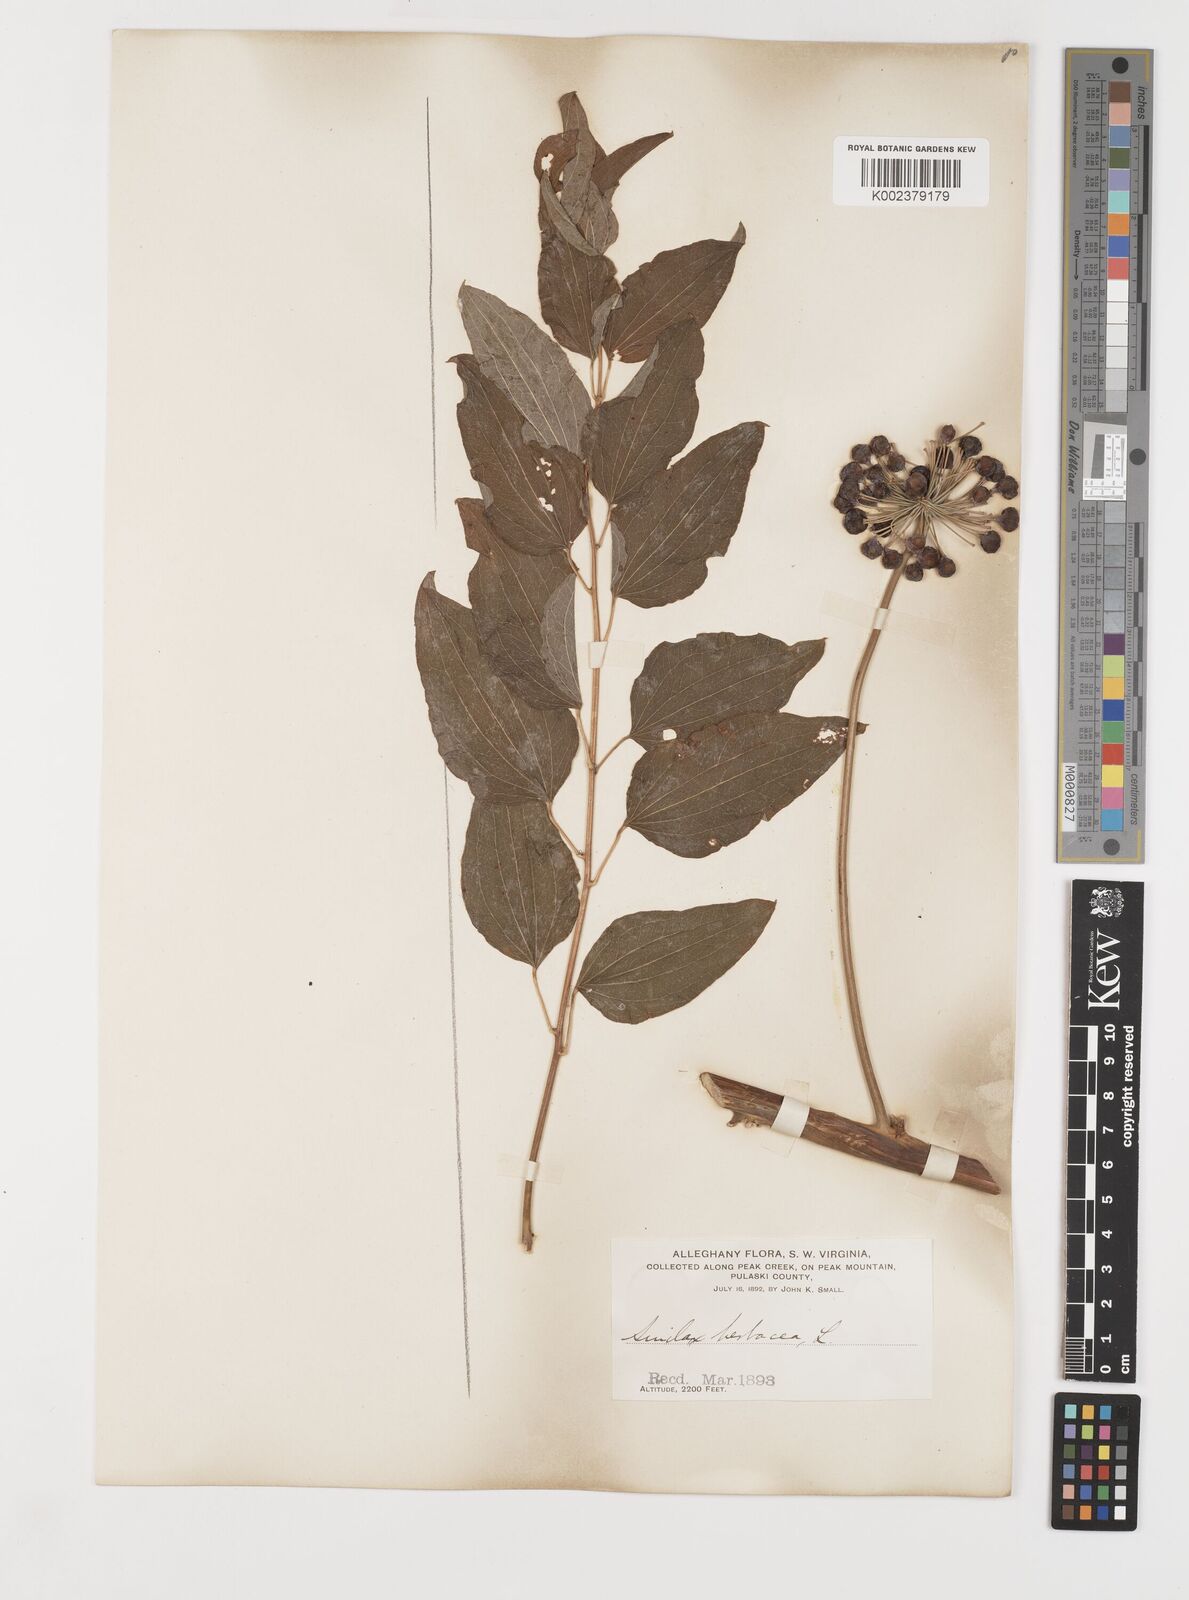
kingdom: Plantae
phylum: Tracheophyta
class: Liliopsida
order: Liliales
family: Smilacaceae
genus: Smilax
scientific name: Smilax herbacea
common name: Jacob's-ladder
